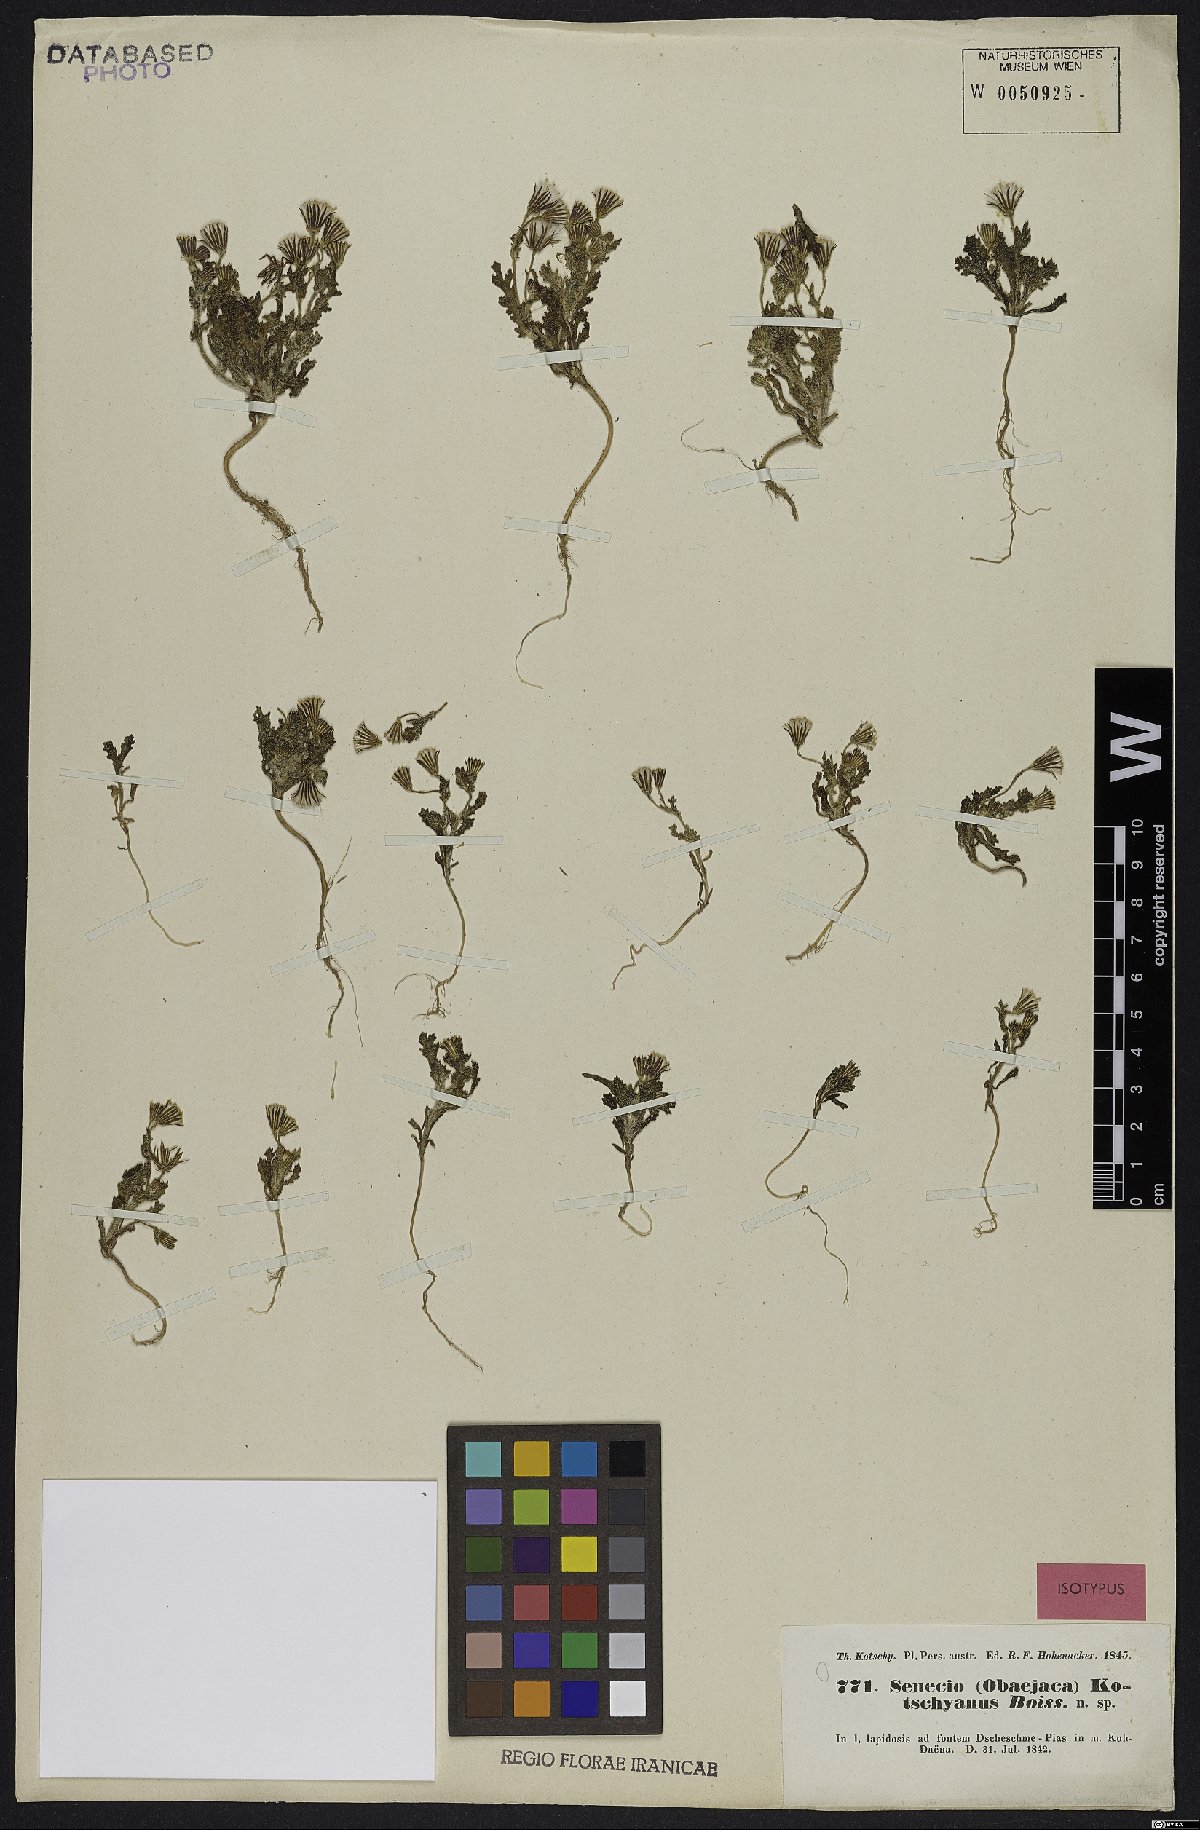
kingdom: Plantae
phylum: Tracheophyta
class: Magnoliopsida
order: Asterales
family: Asteraceae
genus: Senecio
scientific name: Senecio kotschyanus
